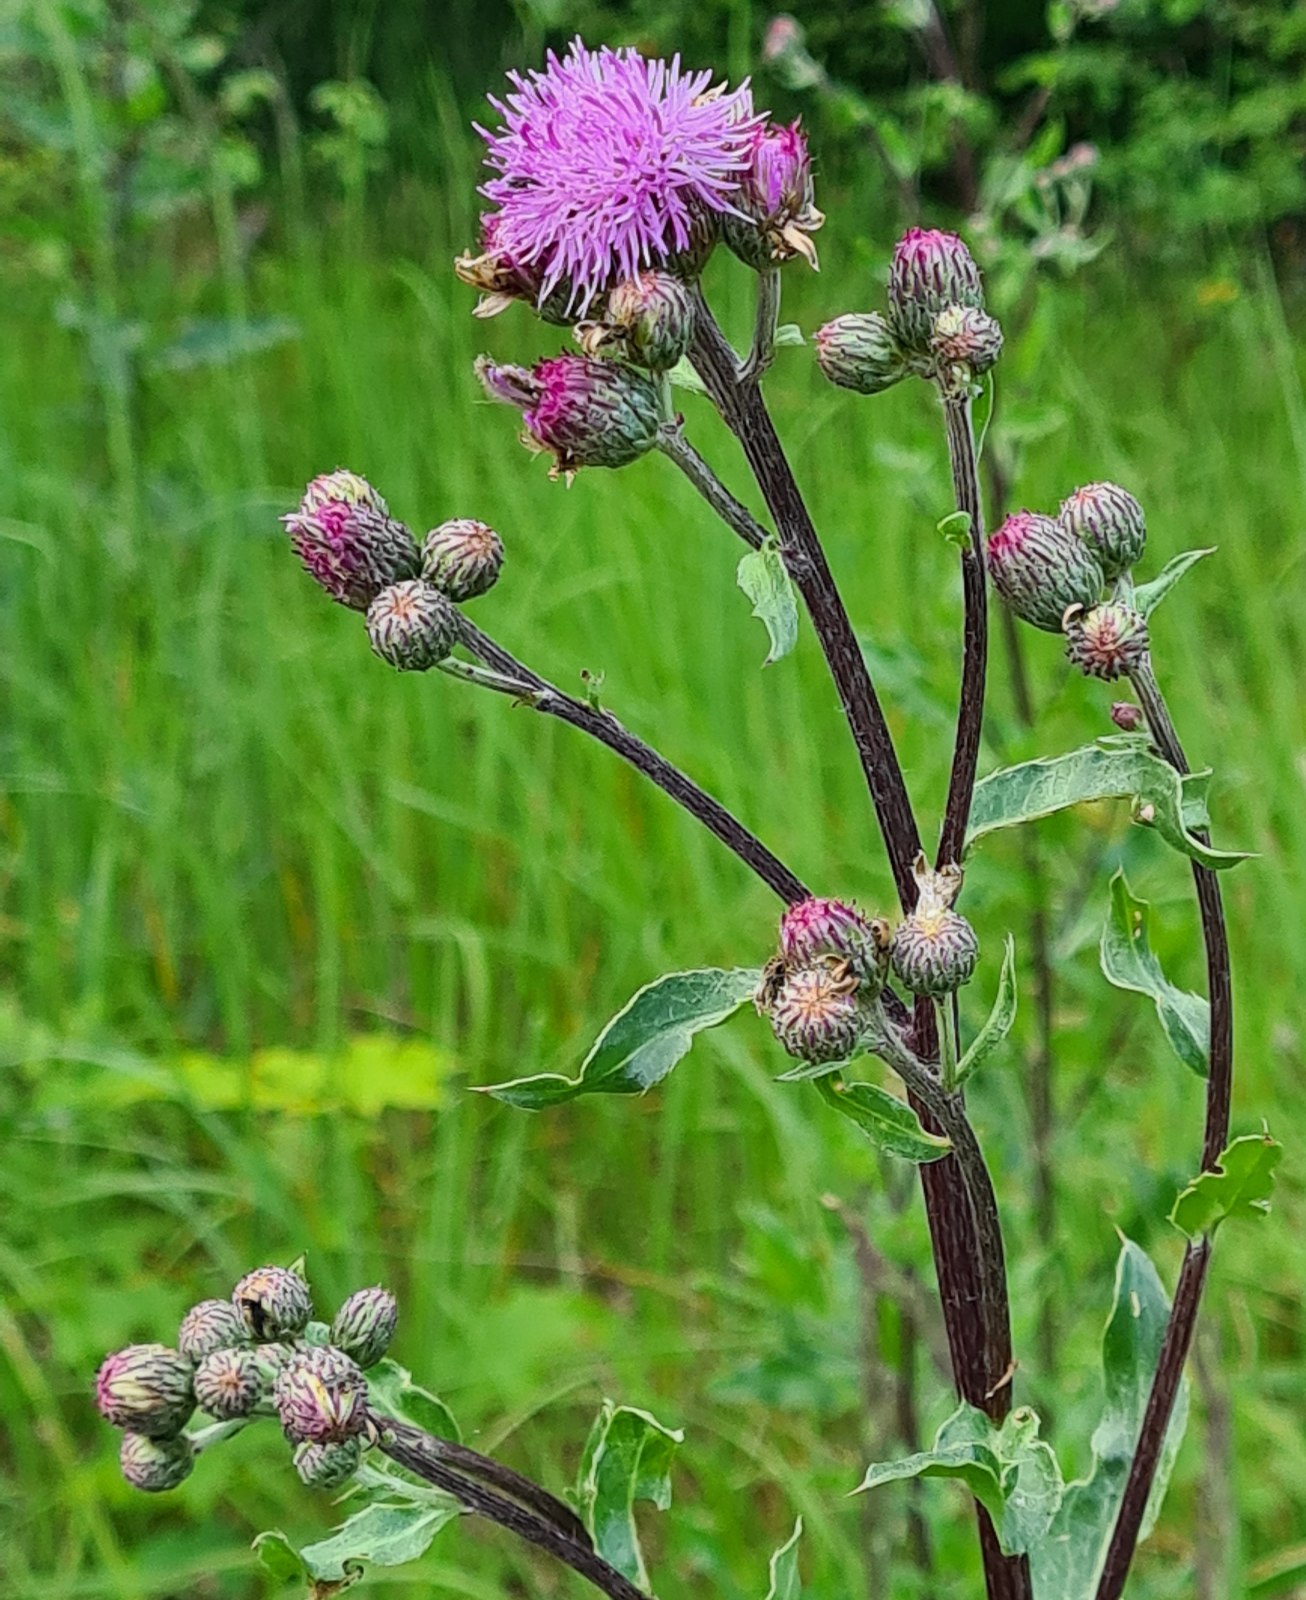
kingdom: Plantae
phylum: Tracheophyta
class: Magnoliopsida
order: Asterales
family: Asteraceae
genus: Cirsium
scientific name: Cirsium arvense
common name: Ager-tidsel
